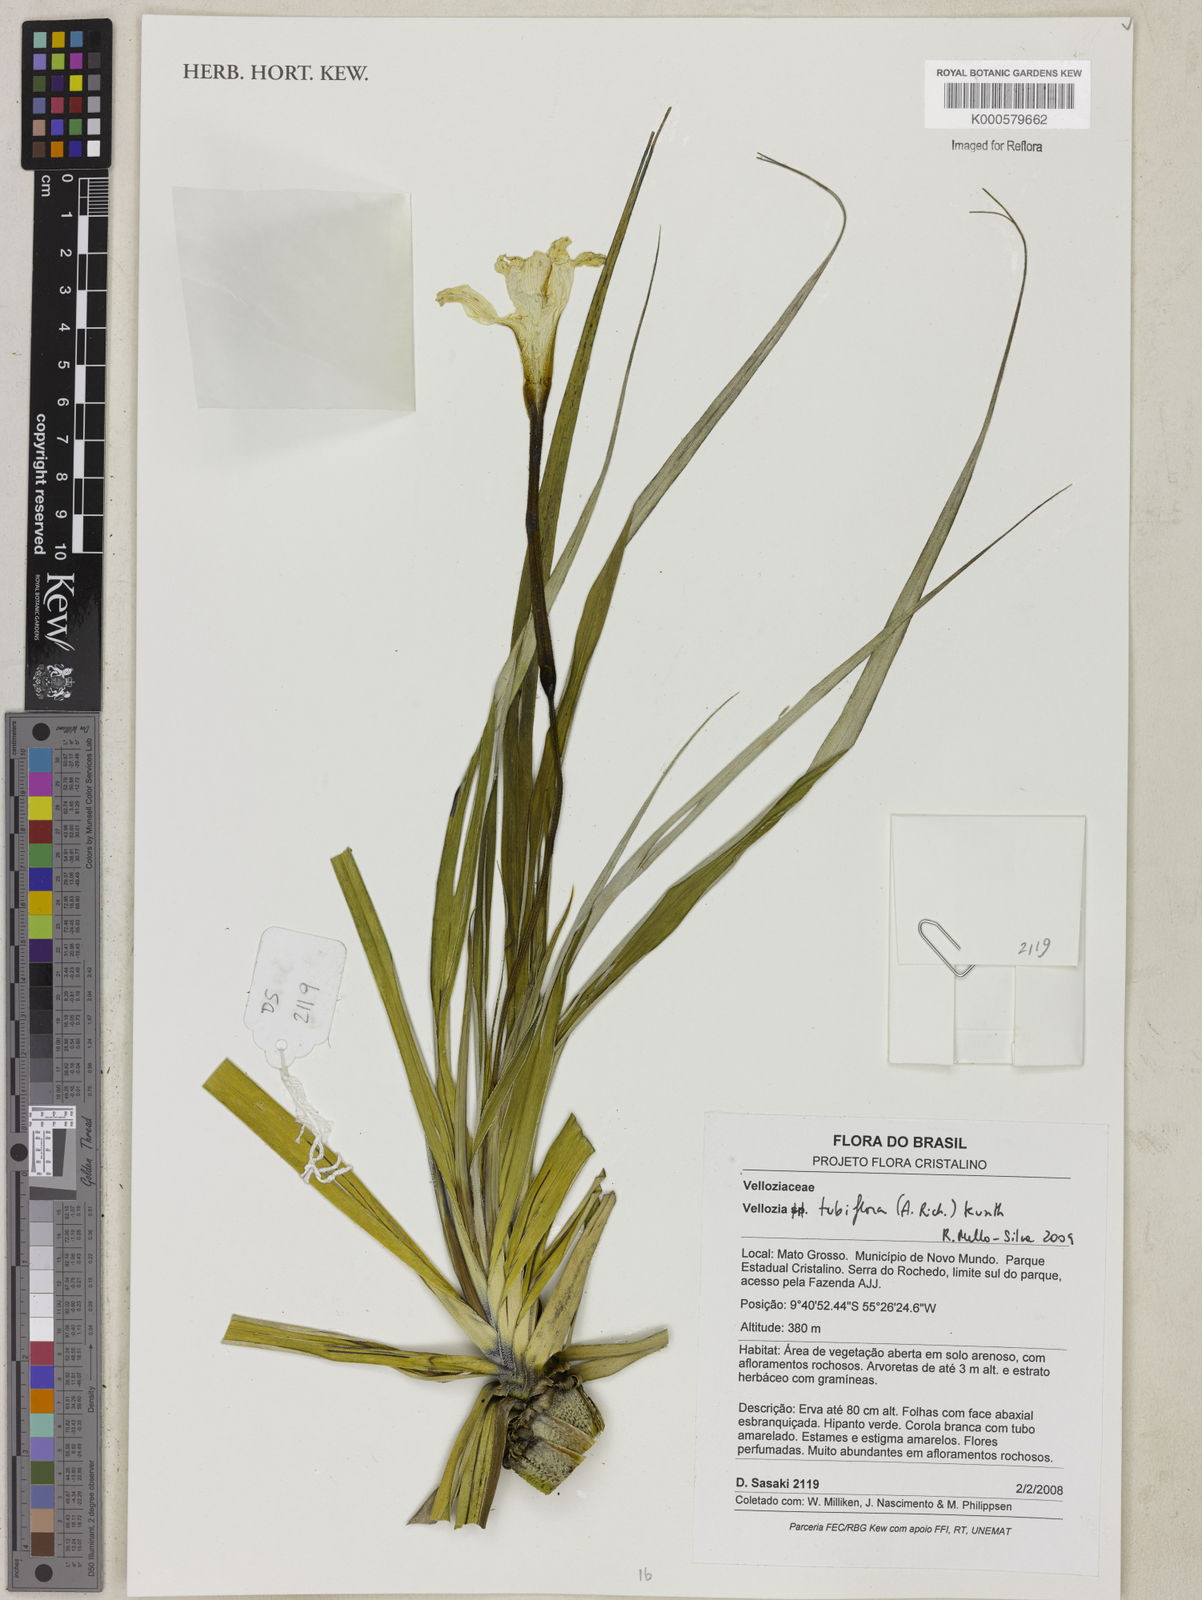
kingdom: Plantae
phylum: Tracheophyta
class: Liliopsida
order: Pandanales
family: Velloziaceae
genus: Vellozia
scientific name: Vellozia tubiflora
